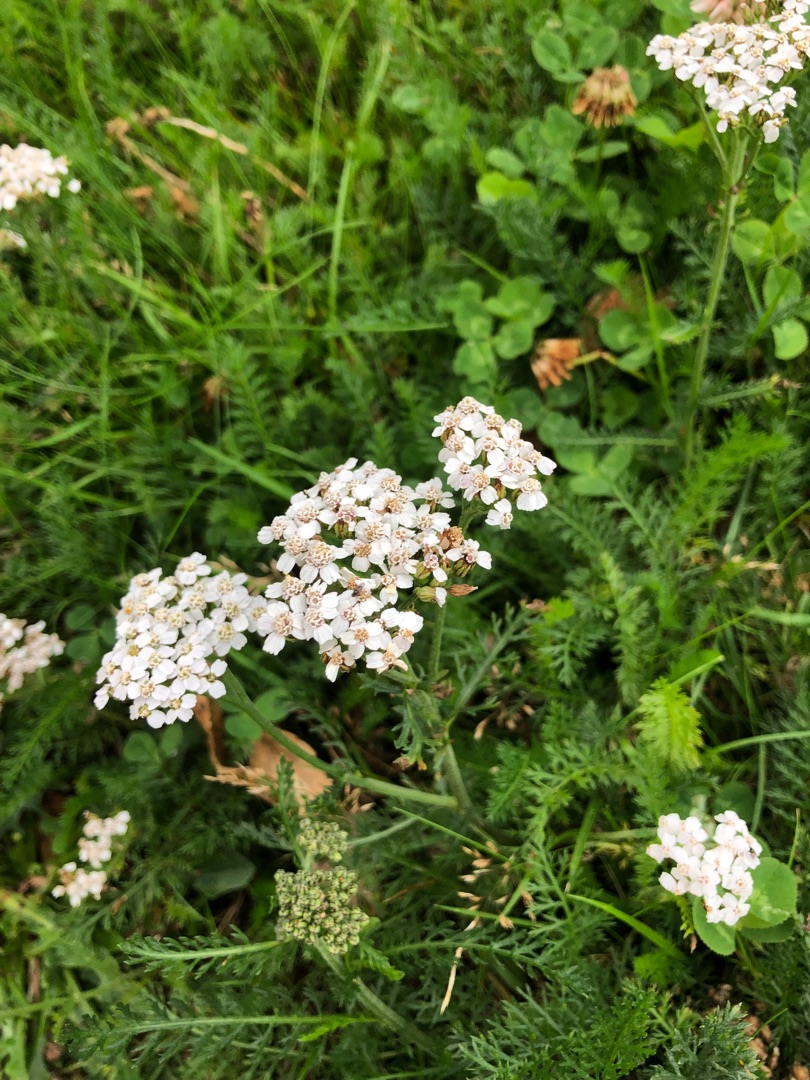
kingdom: Plantae
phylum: Tracheophyta
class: Magnoliopsida
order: Asterales
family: Asteraceae
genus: Achillea
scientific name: Achillea millefolium
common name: Almindelig røllike
